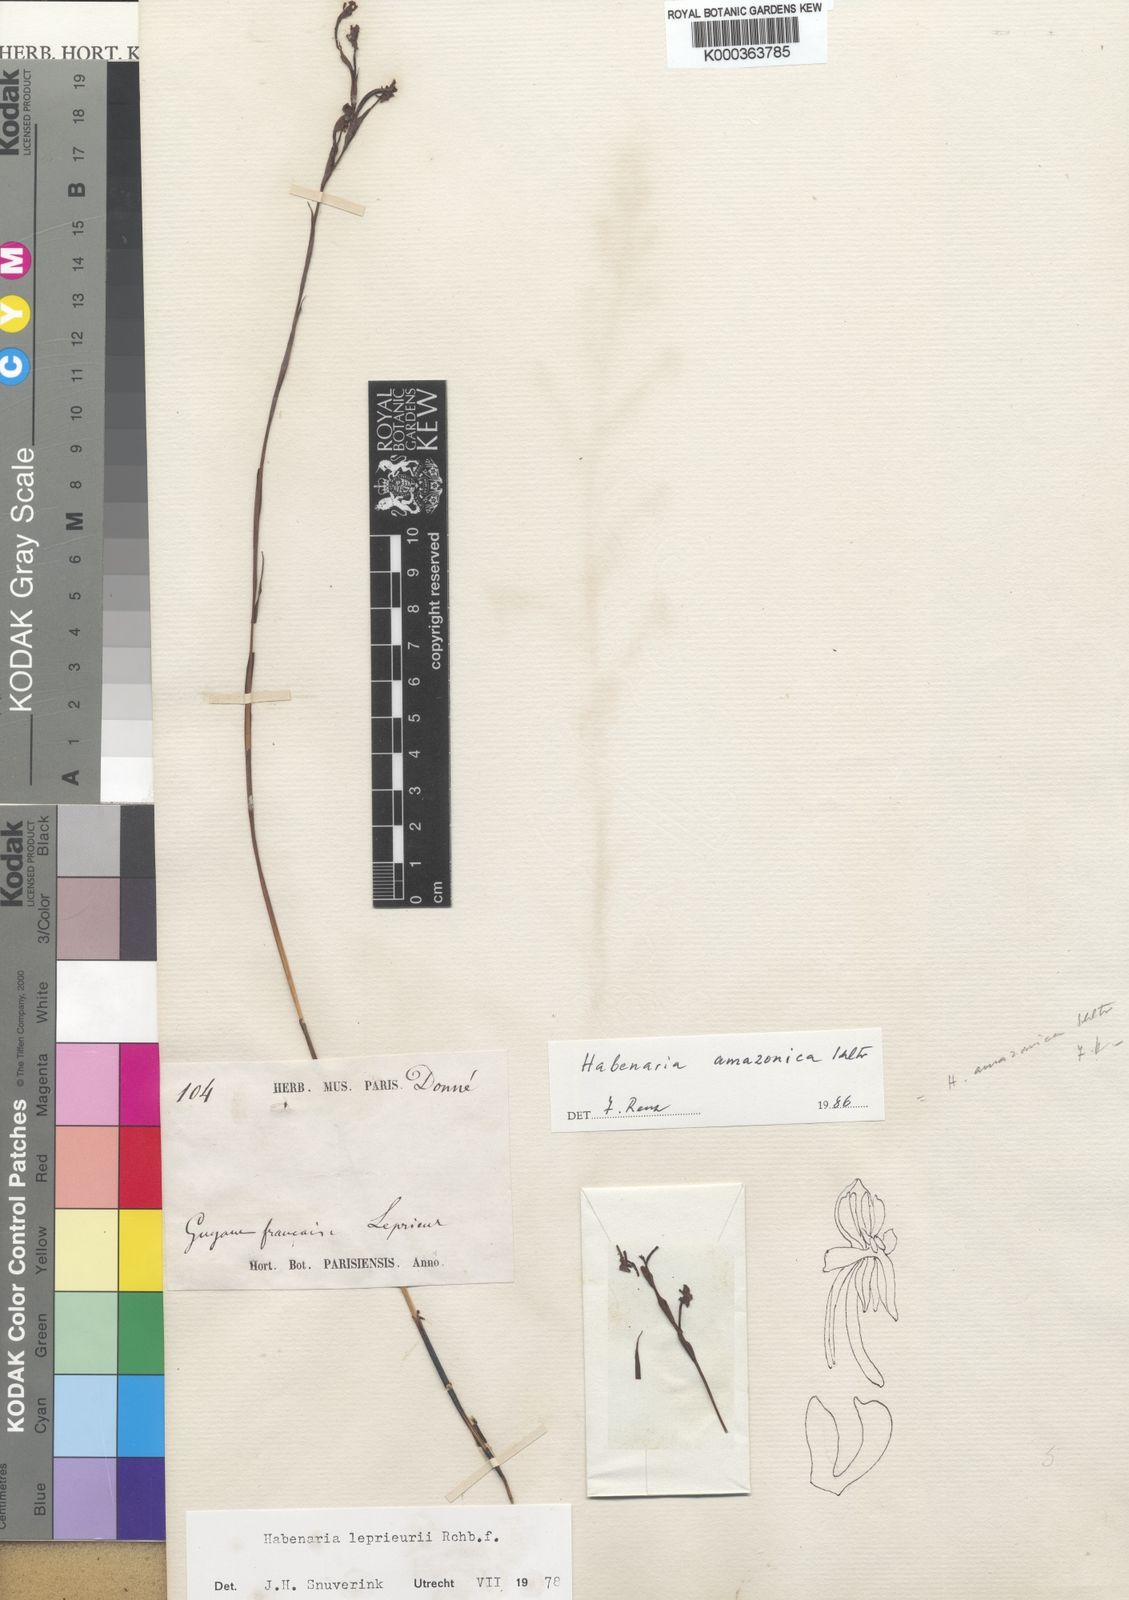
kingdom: Plantae
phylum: Tracheophyta
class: Liliopsida
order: Asparagales
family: Orchidaceae
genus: Habenaria
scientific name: Habenaria leprieurii
